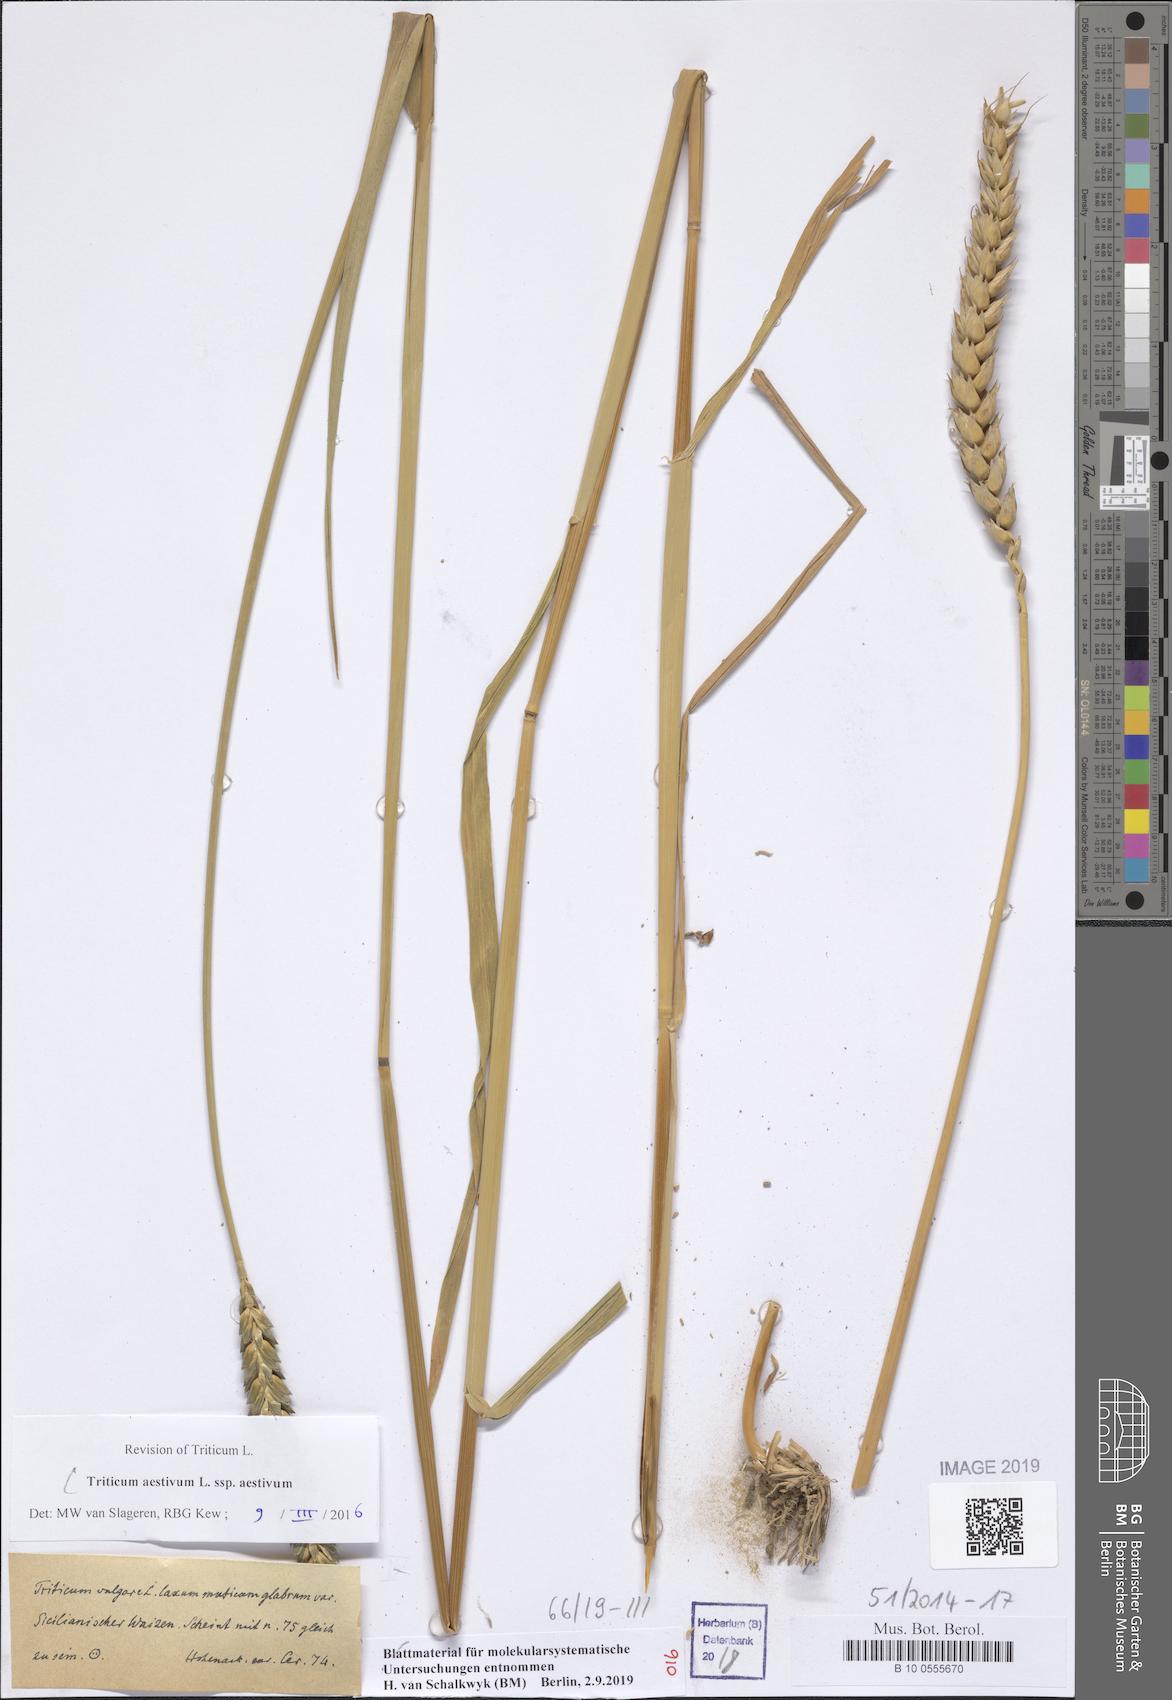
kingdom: Plantae
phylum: Tracheophyta
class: Liliopsida
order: Poales
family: Poaceae
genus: Triticum
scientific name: Triticum aestivum
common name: Common wheat
